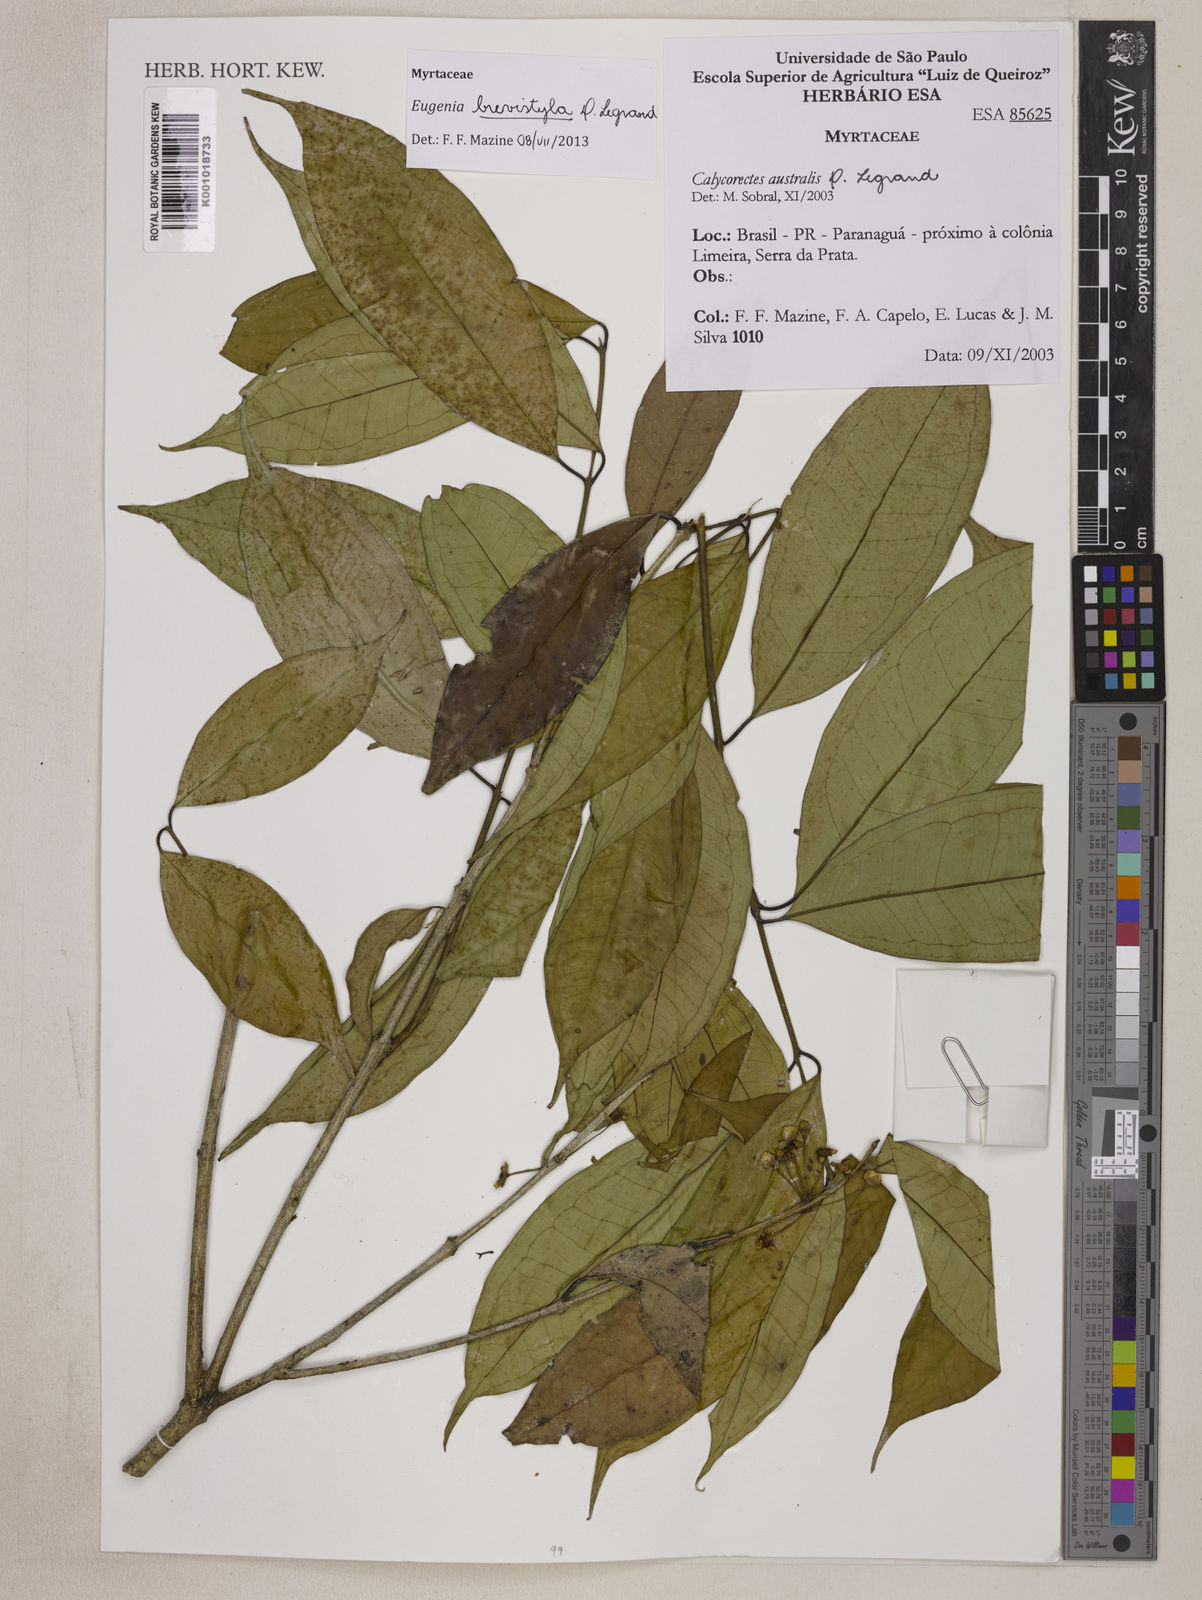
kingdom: Plantae
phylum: Tracheophyta
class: Magnoliopsida
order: Myrtales
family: Myrtaceae
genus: Eugenia
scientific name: Eugenia brevistyla
